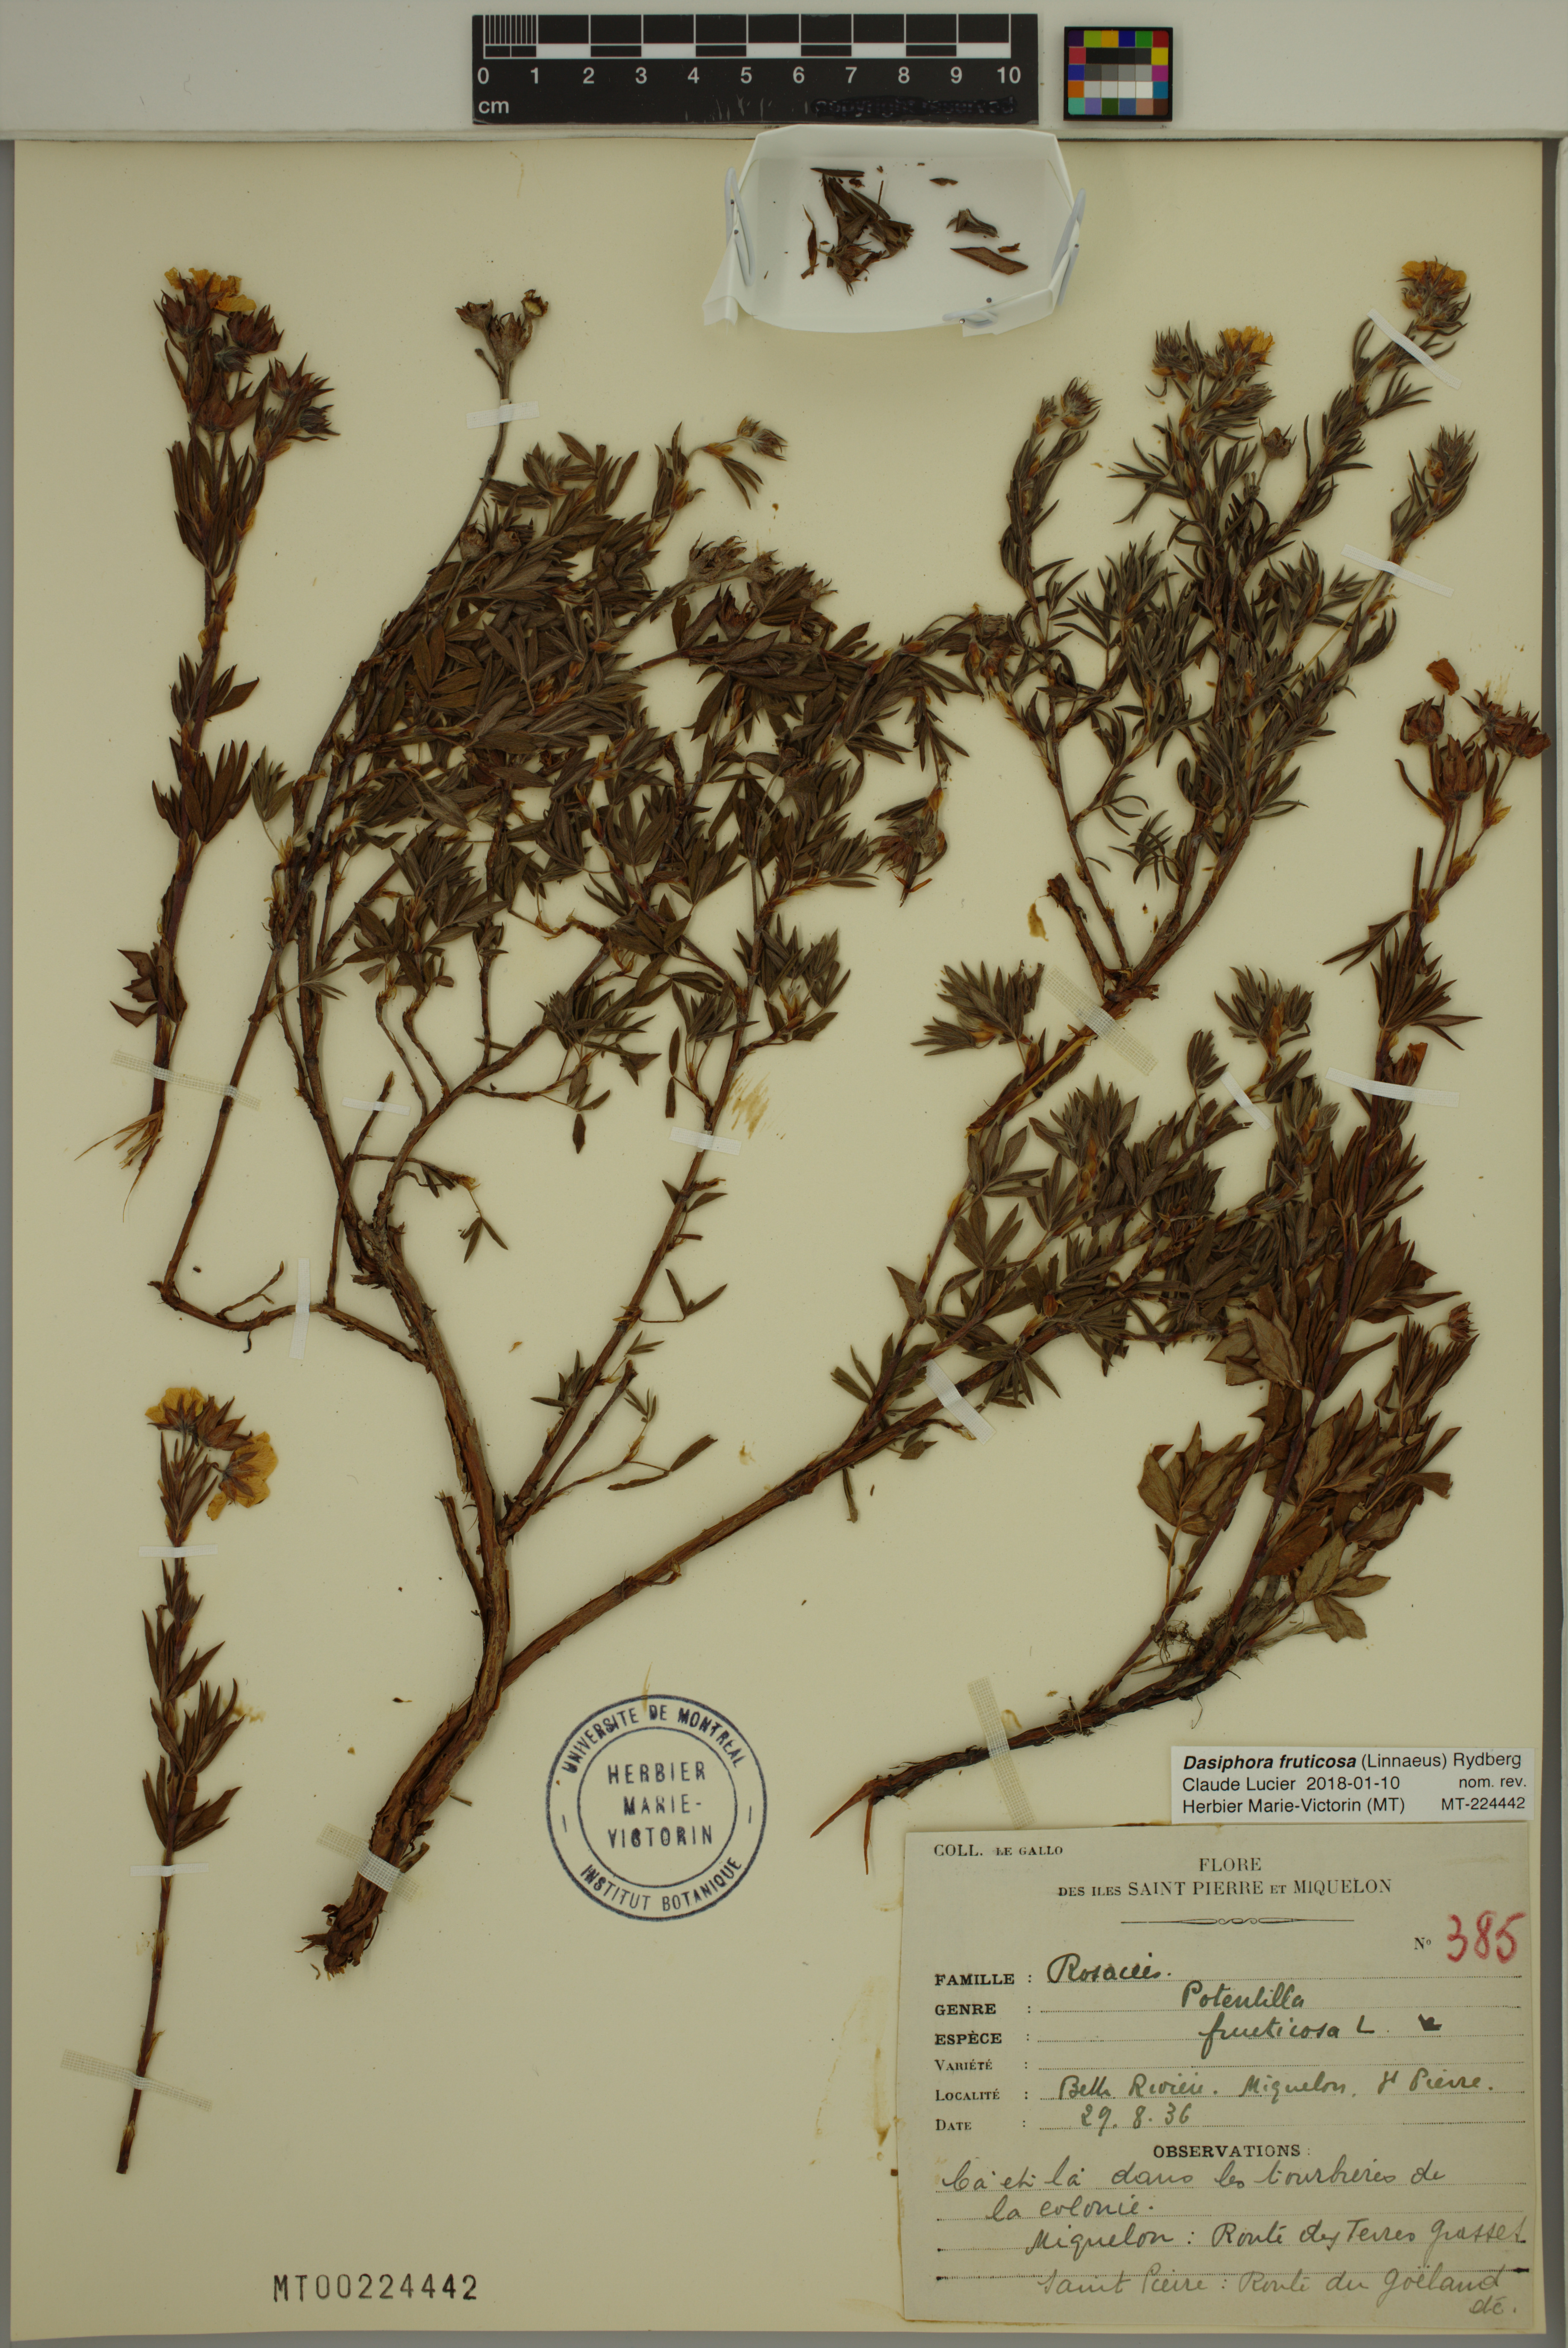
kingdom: Plantae
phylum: Tracheophyta
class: Magnoliopsida
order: Rosales
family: Rosaceae
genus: Dasiphora
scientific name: Dasiphora fruticosa
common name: Shrubby cinquefoil
